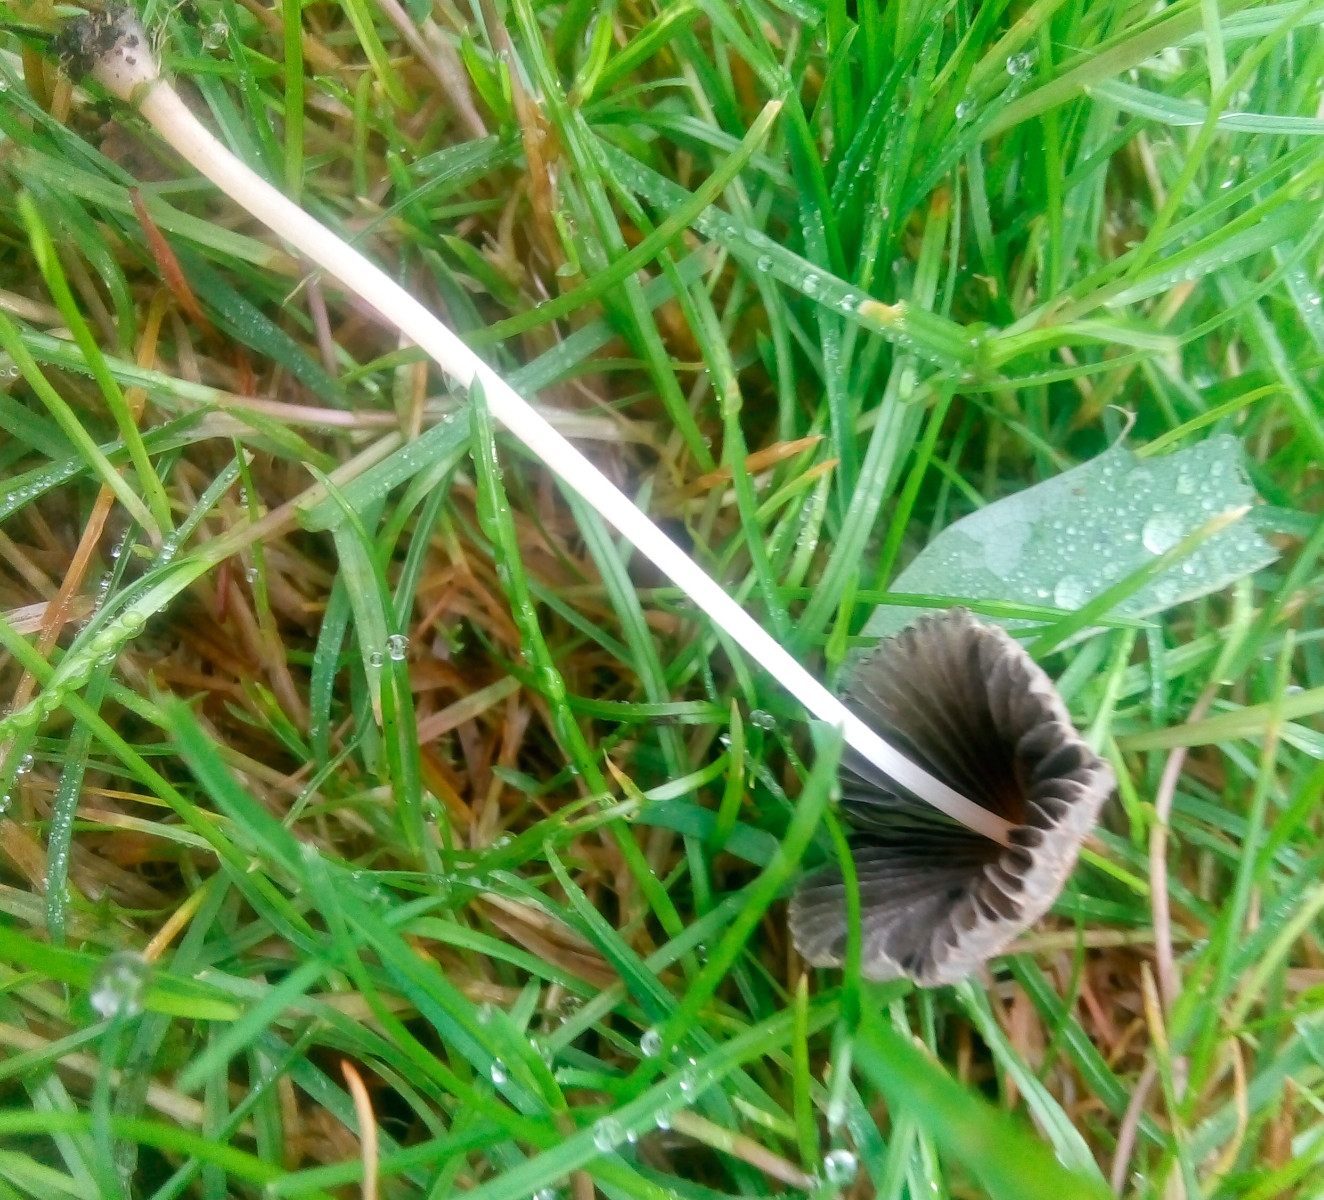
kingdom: Fungi
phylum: Basidiomycota
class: Agaricomycetes
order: Agaricales
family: Psathyrellaceae
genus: Parasola
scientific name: Parasola kuehneri
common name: skygge-hjulhat
